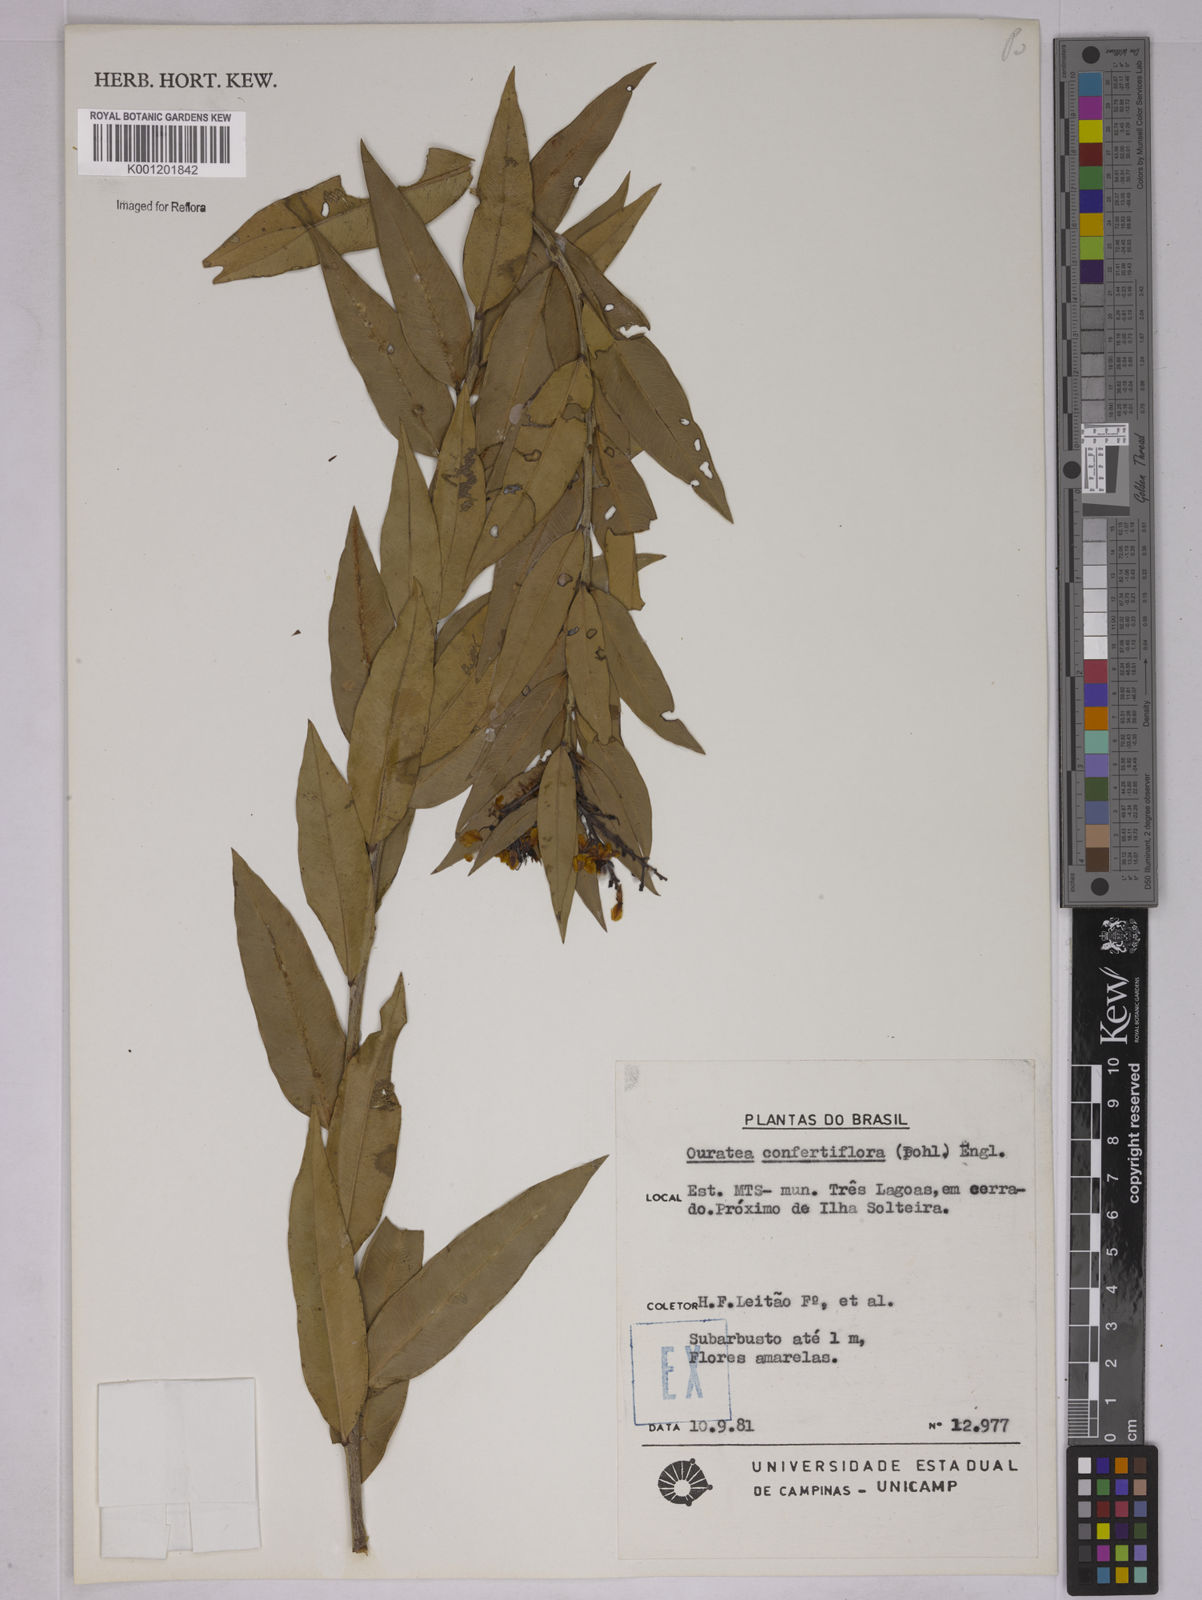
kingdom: Plantae
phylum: Tracheophyta
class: Magnoliopsida
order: Malpighiales
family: Ochnaceae
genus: Ouratea
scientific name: Ouratea confertiflora
